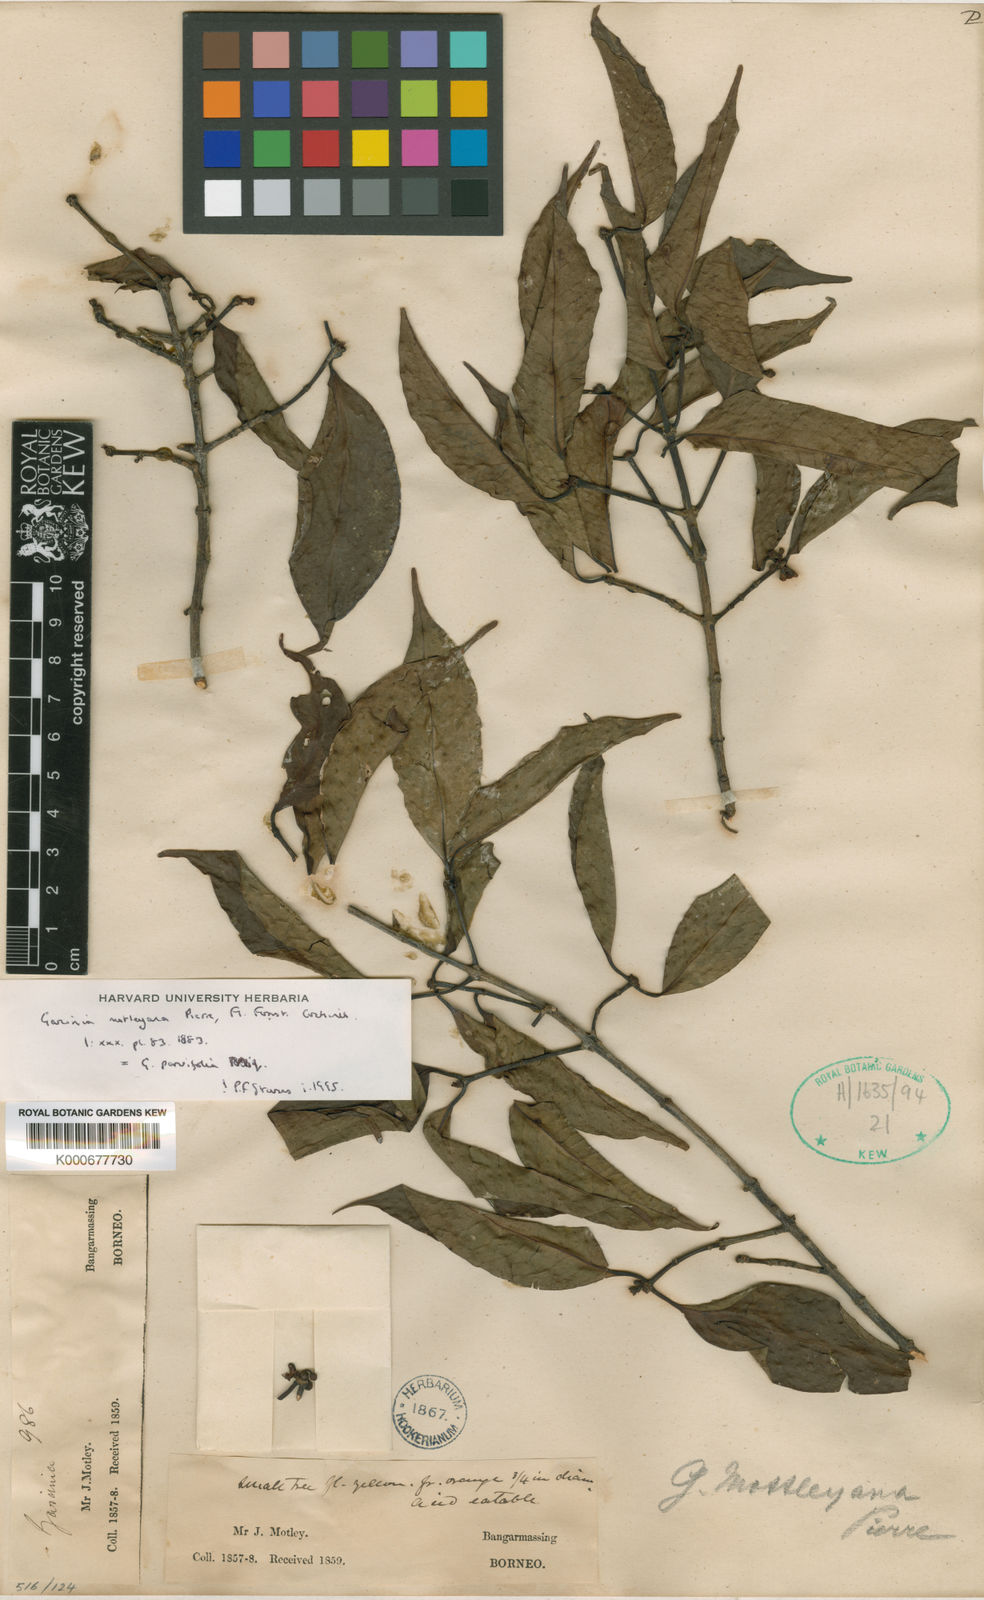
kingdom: Plantae
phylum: Tracheophyta
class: Magnoliopsida
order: Malpighiales
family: Clusiaceae
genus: Garcinia
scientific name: Garcinia mottleyana
